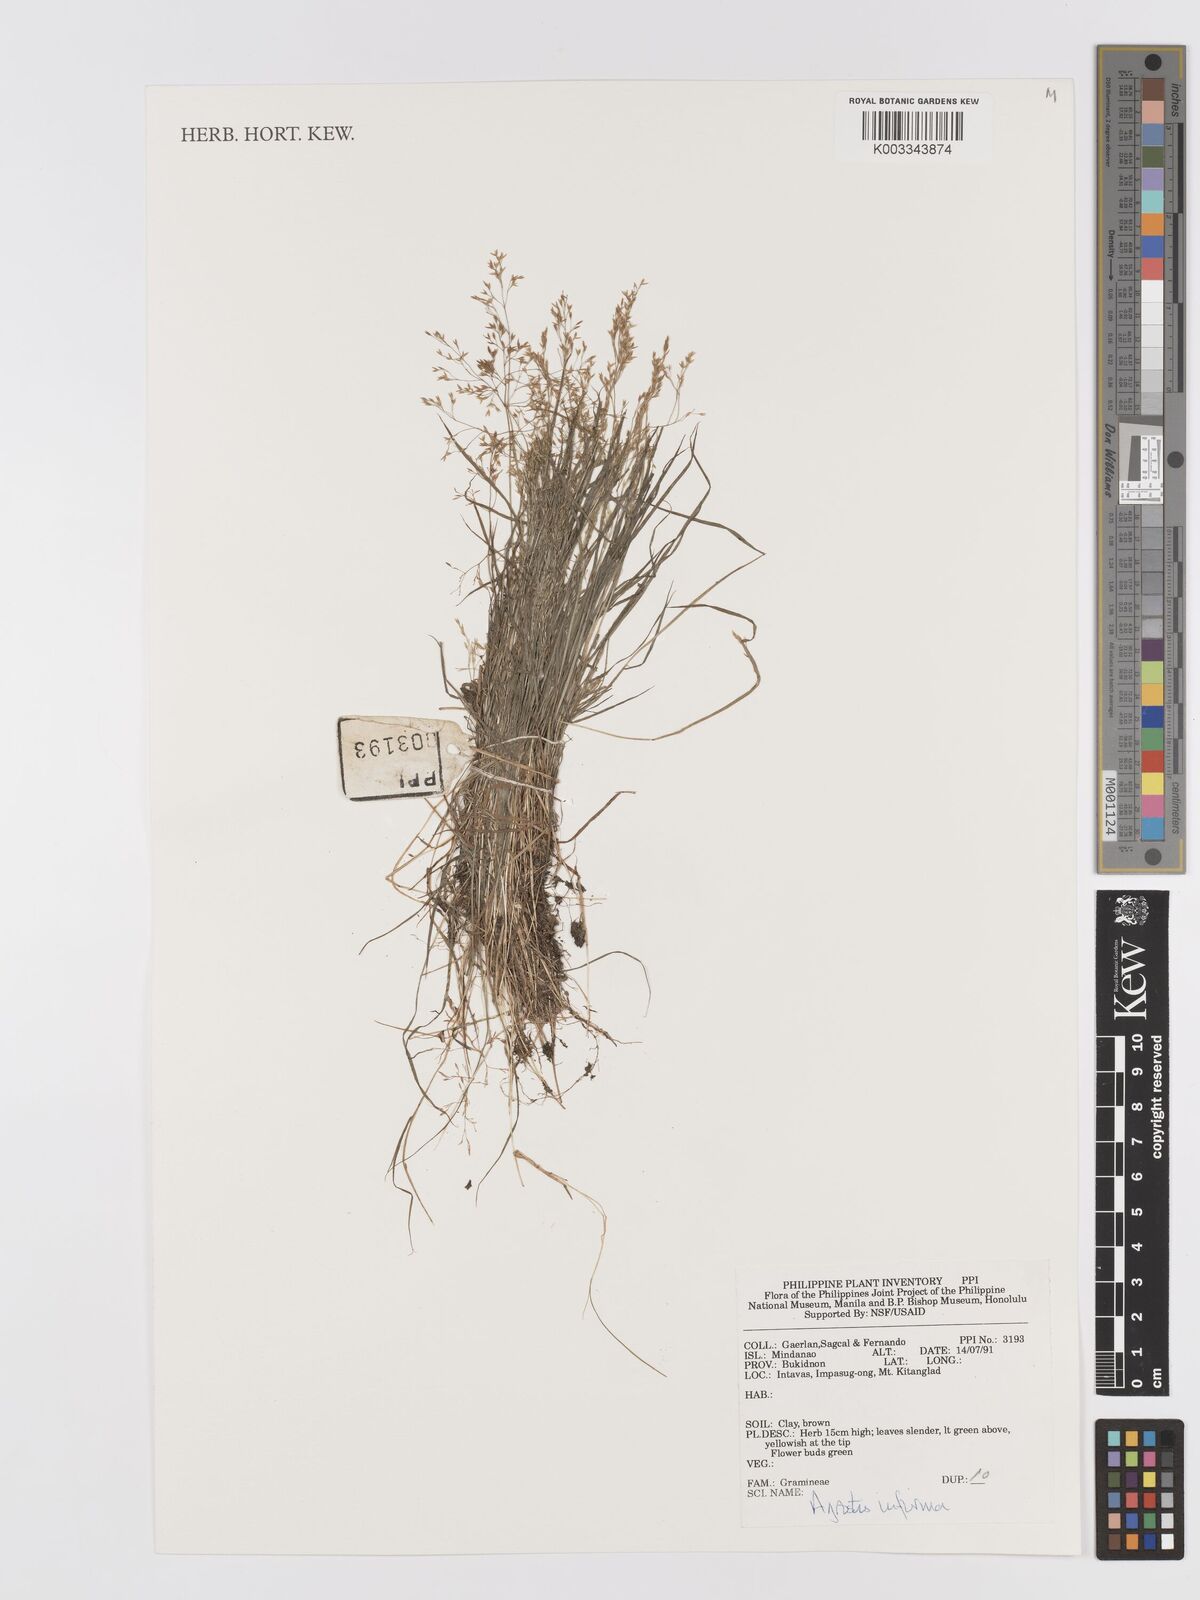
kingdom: Plantae
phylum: Tracheophyta
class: Liliopsida
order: Poales
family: Poaceae
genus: Agrostis
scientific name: Agrostis infirma
